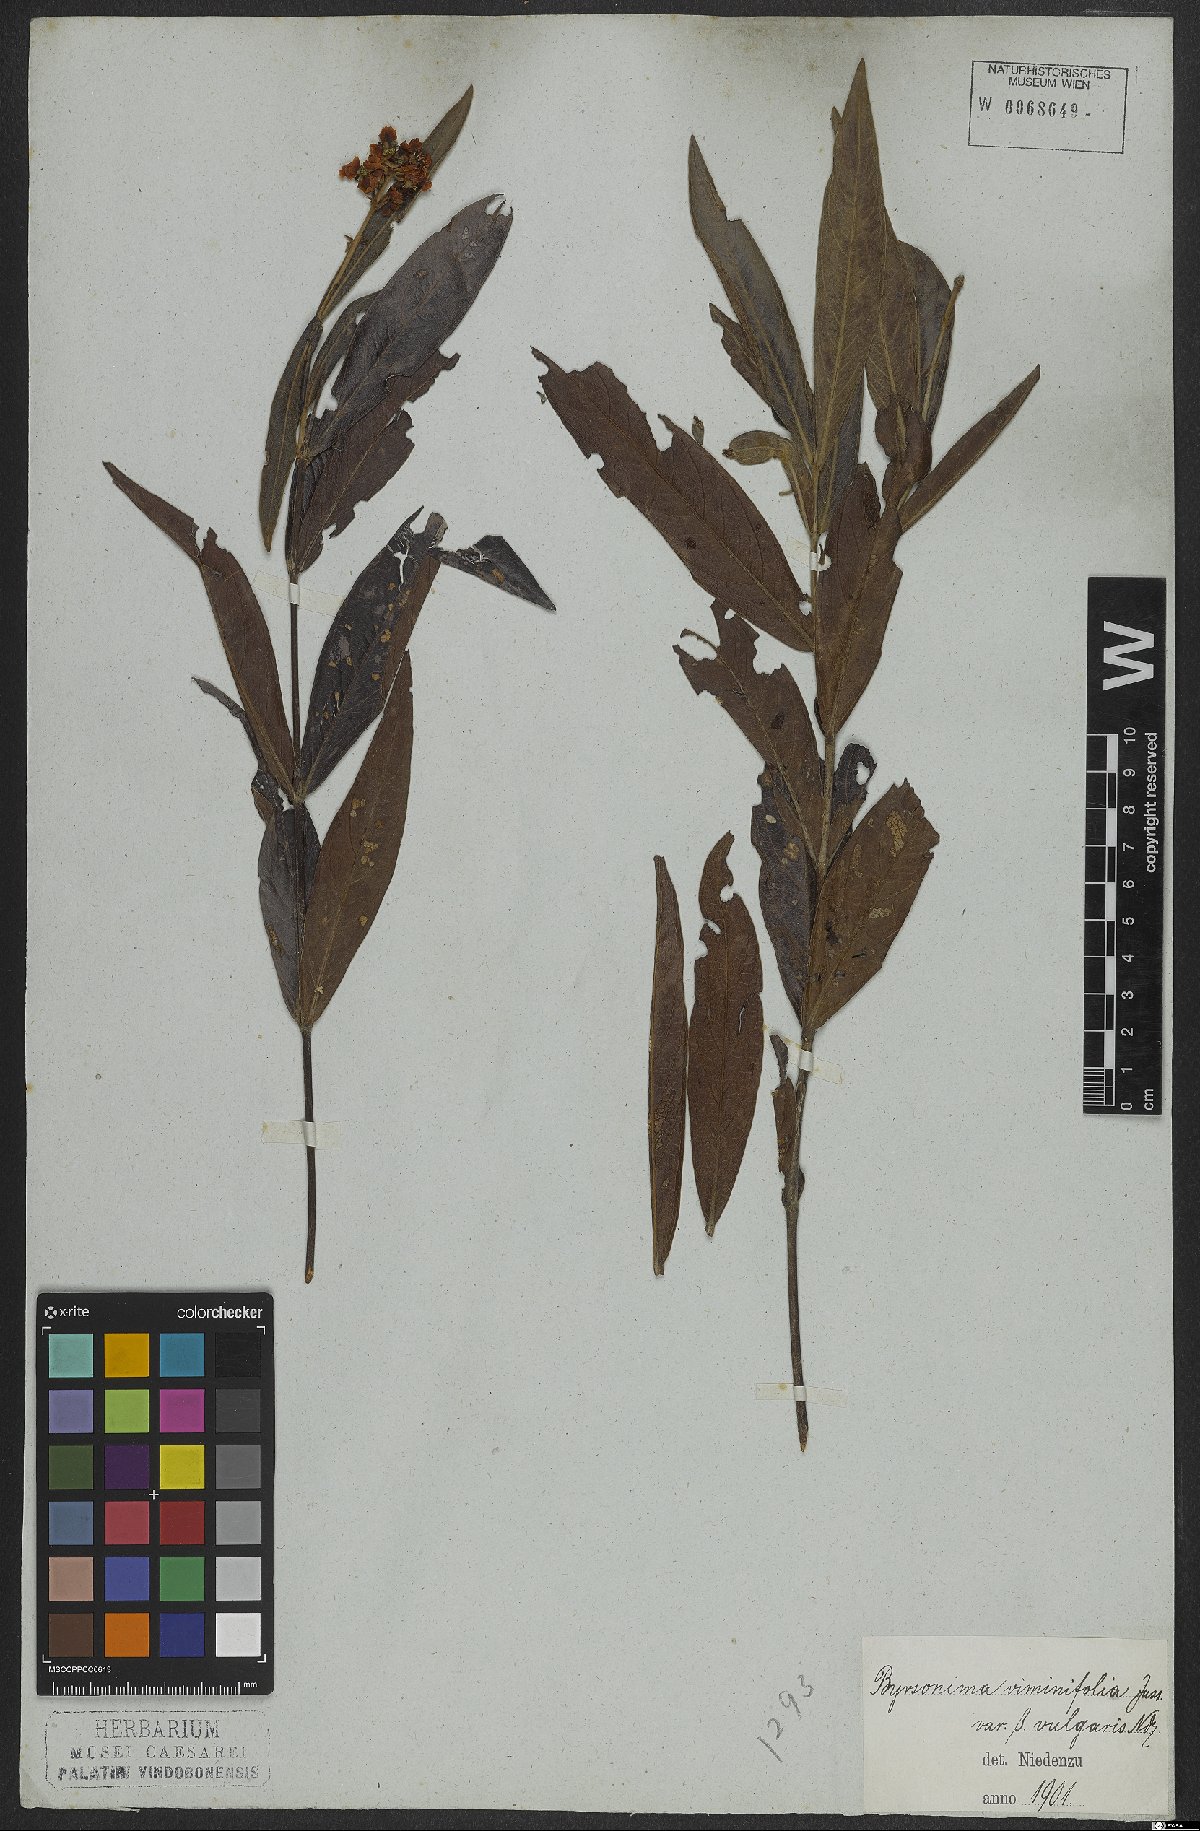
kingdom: Plantae
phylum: Tracheophyta
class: Magnoliopsida
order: Malpighiales
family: Malpighiaceae
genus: Byrsonima
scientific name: Byrsonima viminifolia
